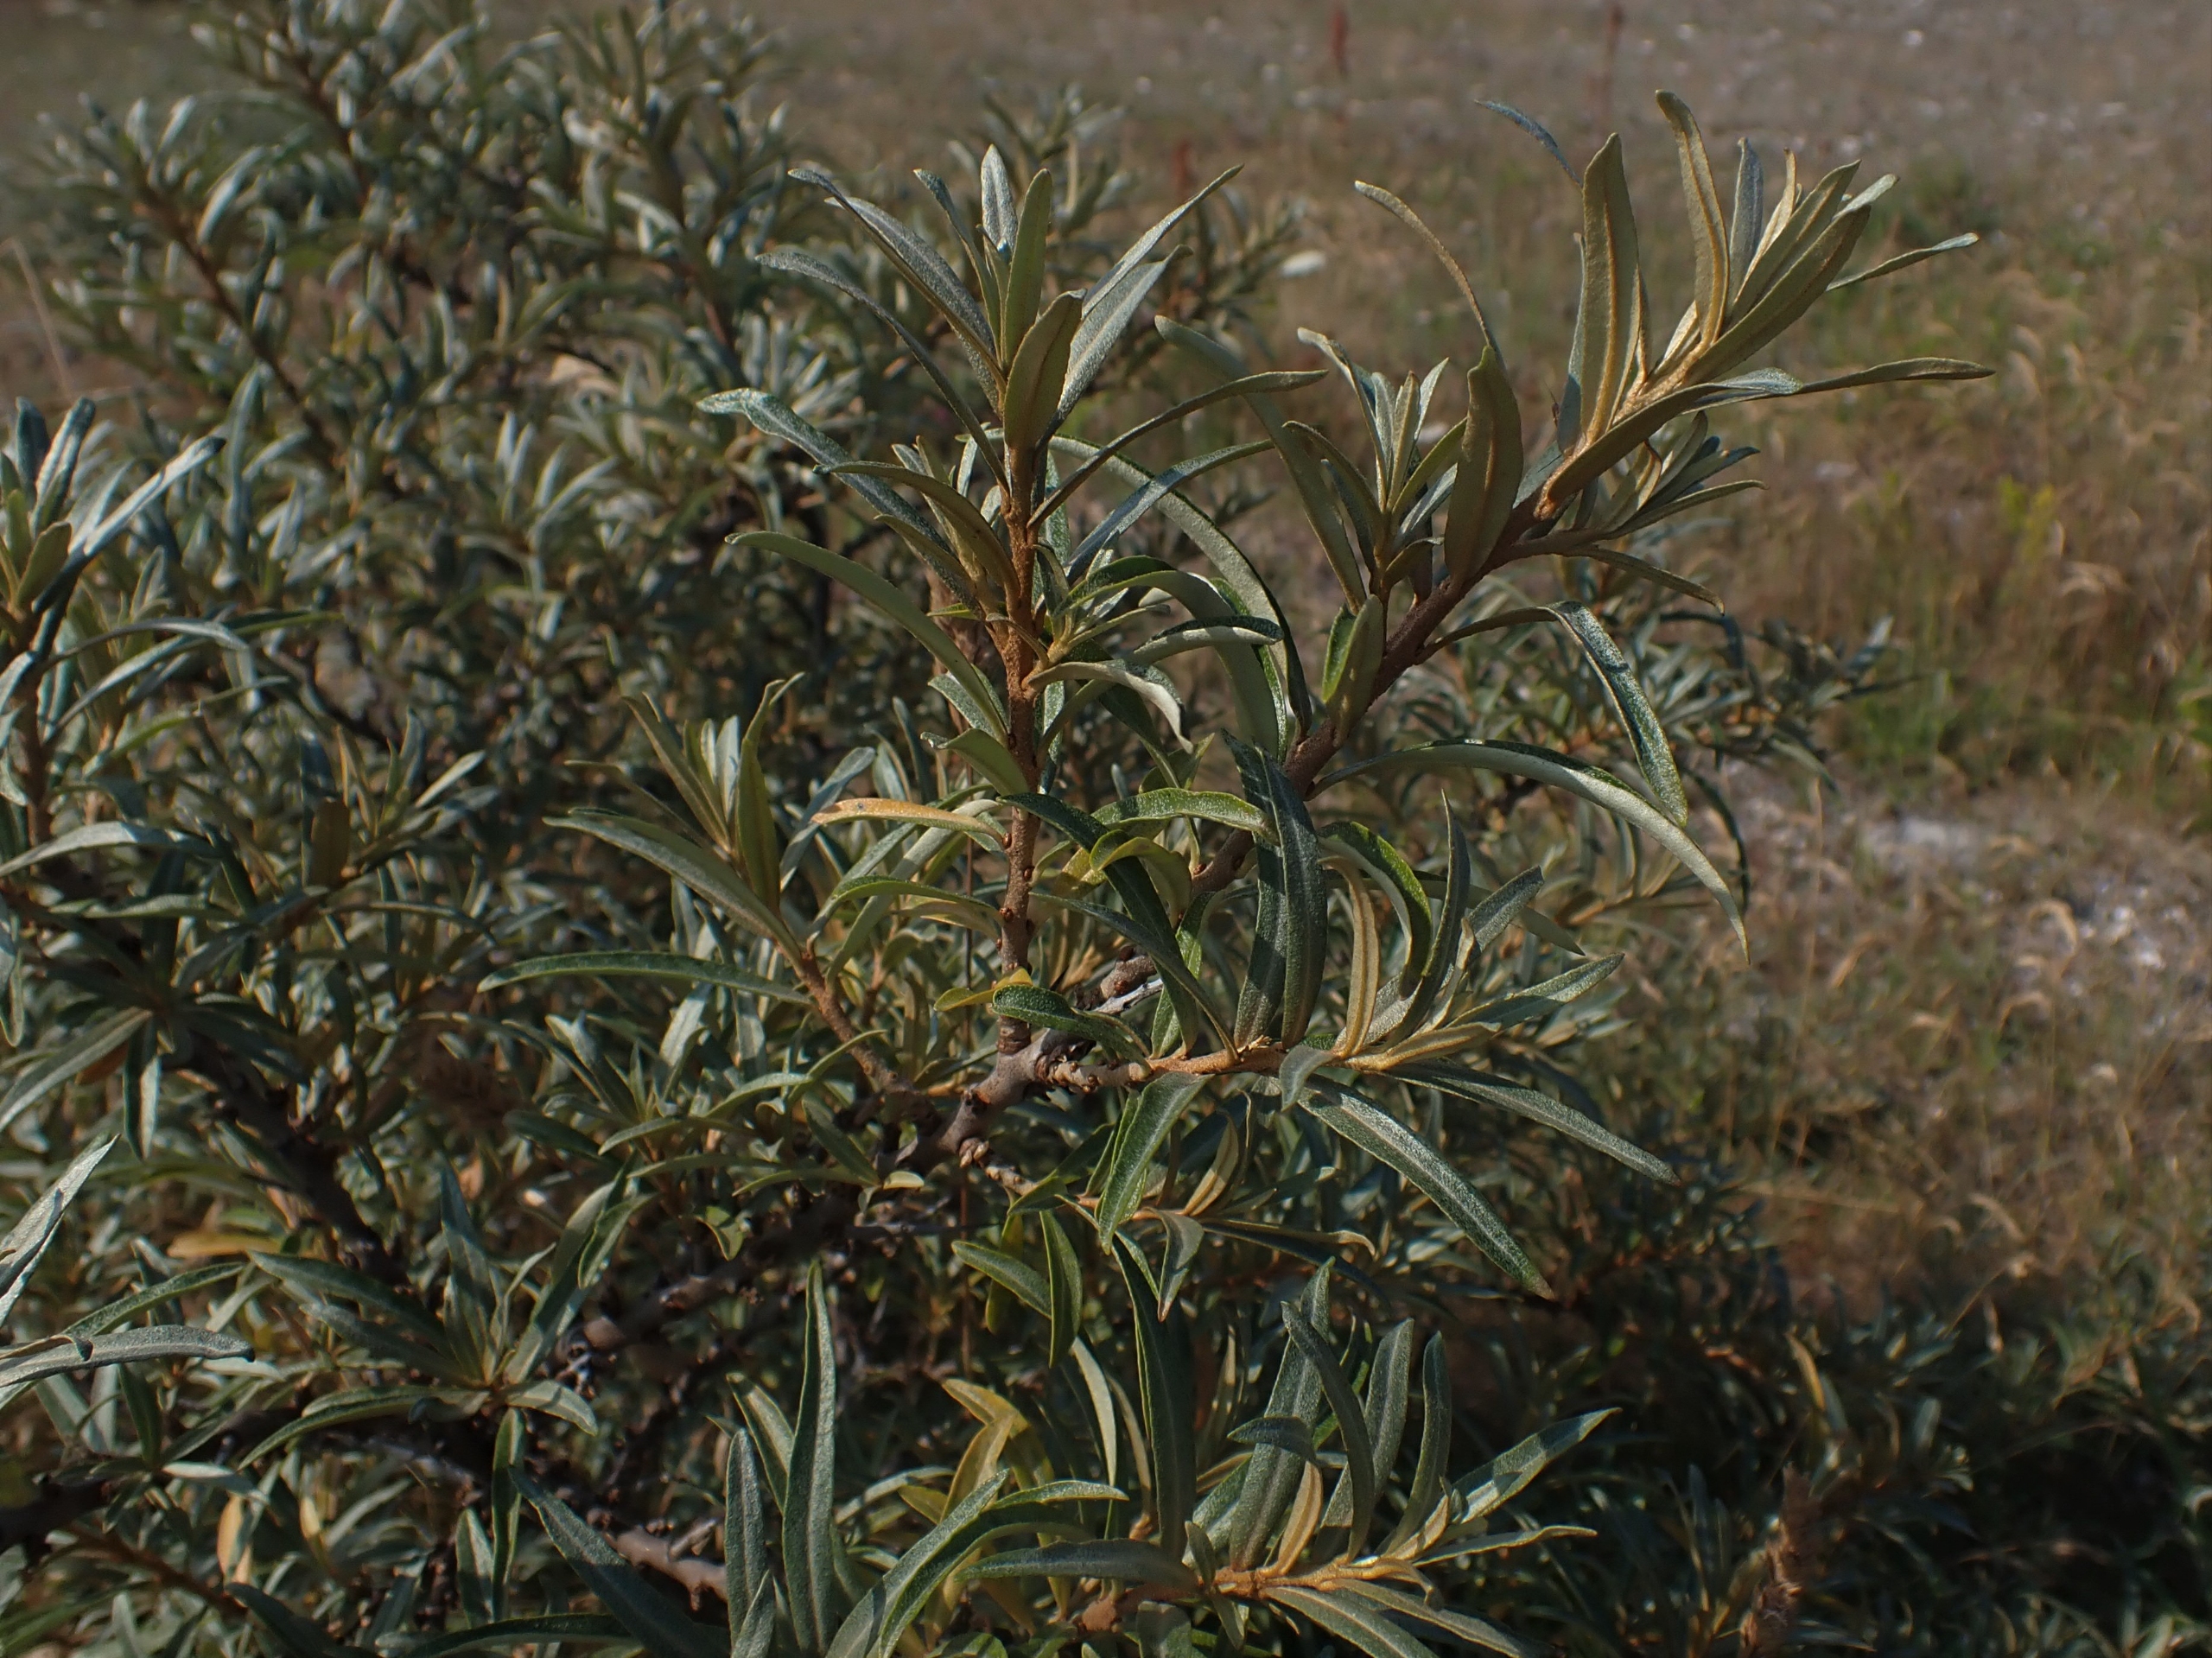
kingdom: Plantae
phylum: Tracheophyta
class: Magnoliopsida
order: Rosales
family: Elaeagnaceae
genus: Hippophae
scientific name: Hippophae rhamnoides
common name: Havtorn
